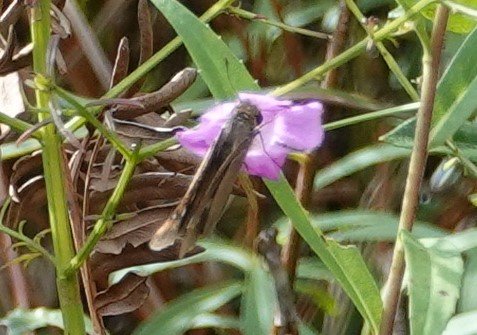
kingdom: Animalia
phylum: Arthropoda
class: Insecta
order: Lepidoptera
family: Hesperiidae
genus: Panoquina
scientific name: Panoquina ocola
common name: Ocola Skipper
